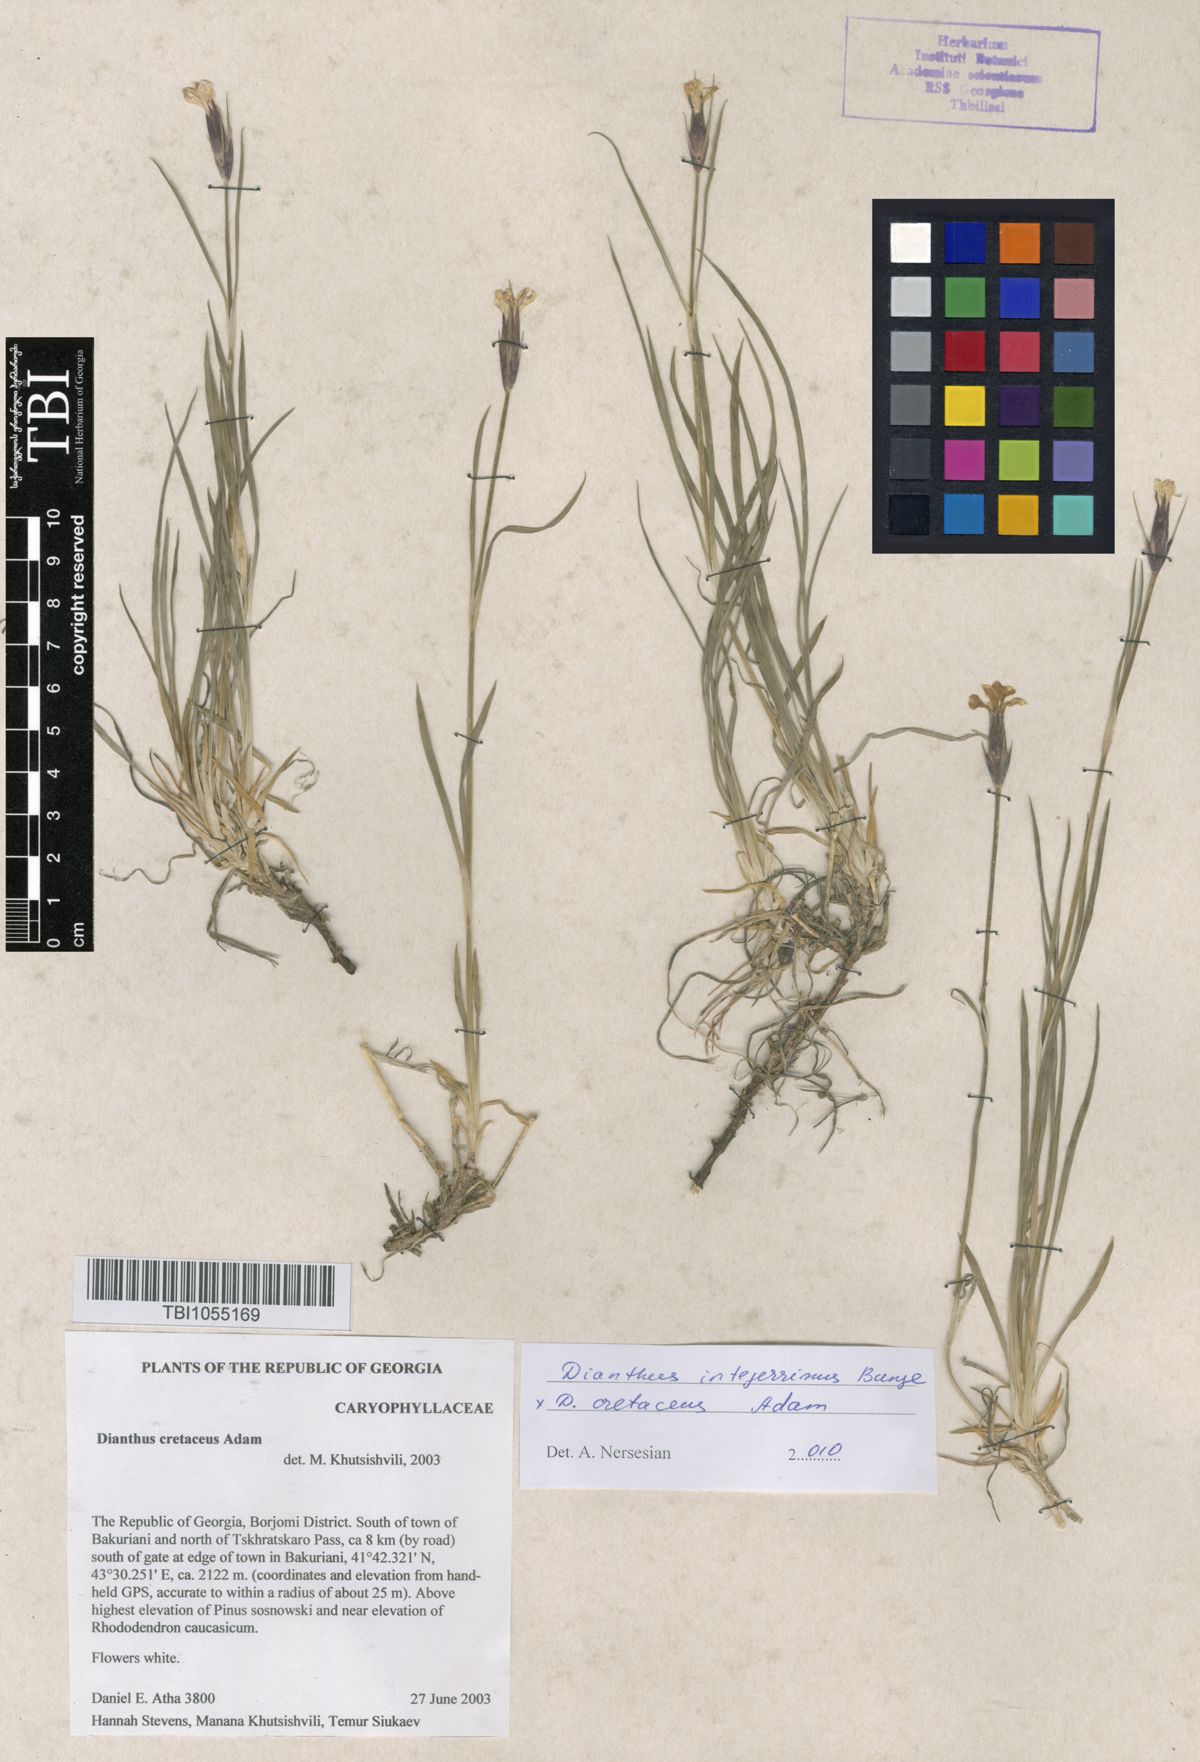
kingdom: Plantae
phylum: Tracheophyta
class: Magnoliopsida
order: Caryophyllales
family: Caryophyllaceae
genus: Dianthus
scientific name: Dianthus cretaceus
